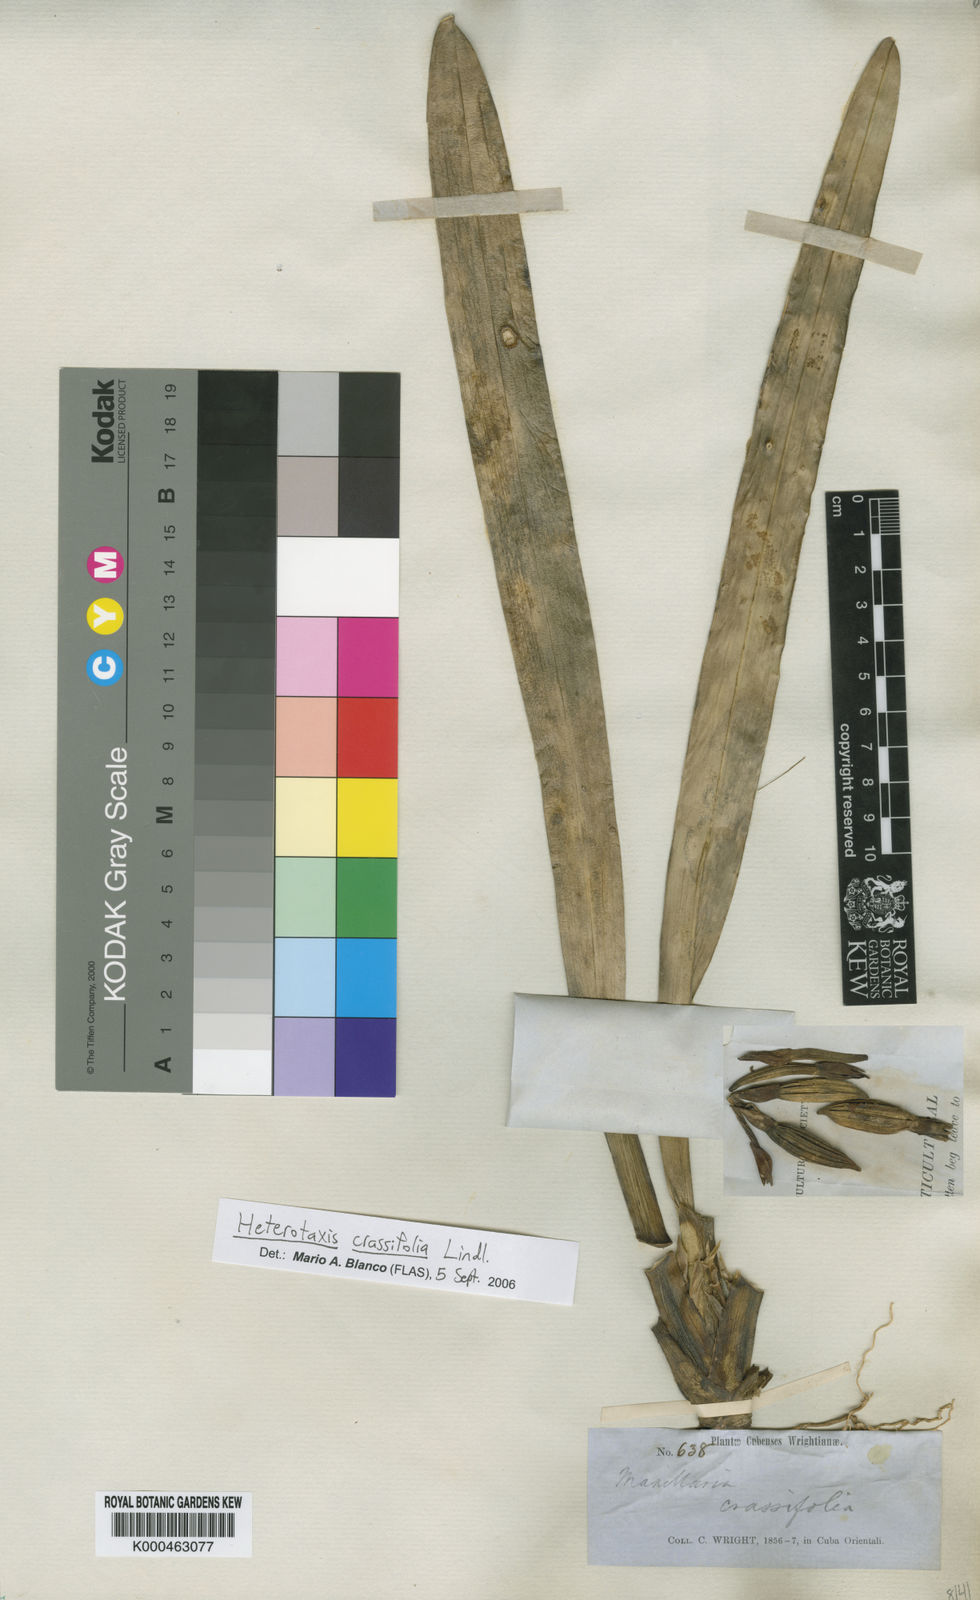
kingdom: Plantae
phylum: Tracheophyta
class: Magnoliopsida
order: Malpighiales
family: Chrysobalanaceae
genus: Magnistipula
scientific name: Magnistipula butayei
